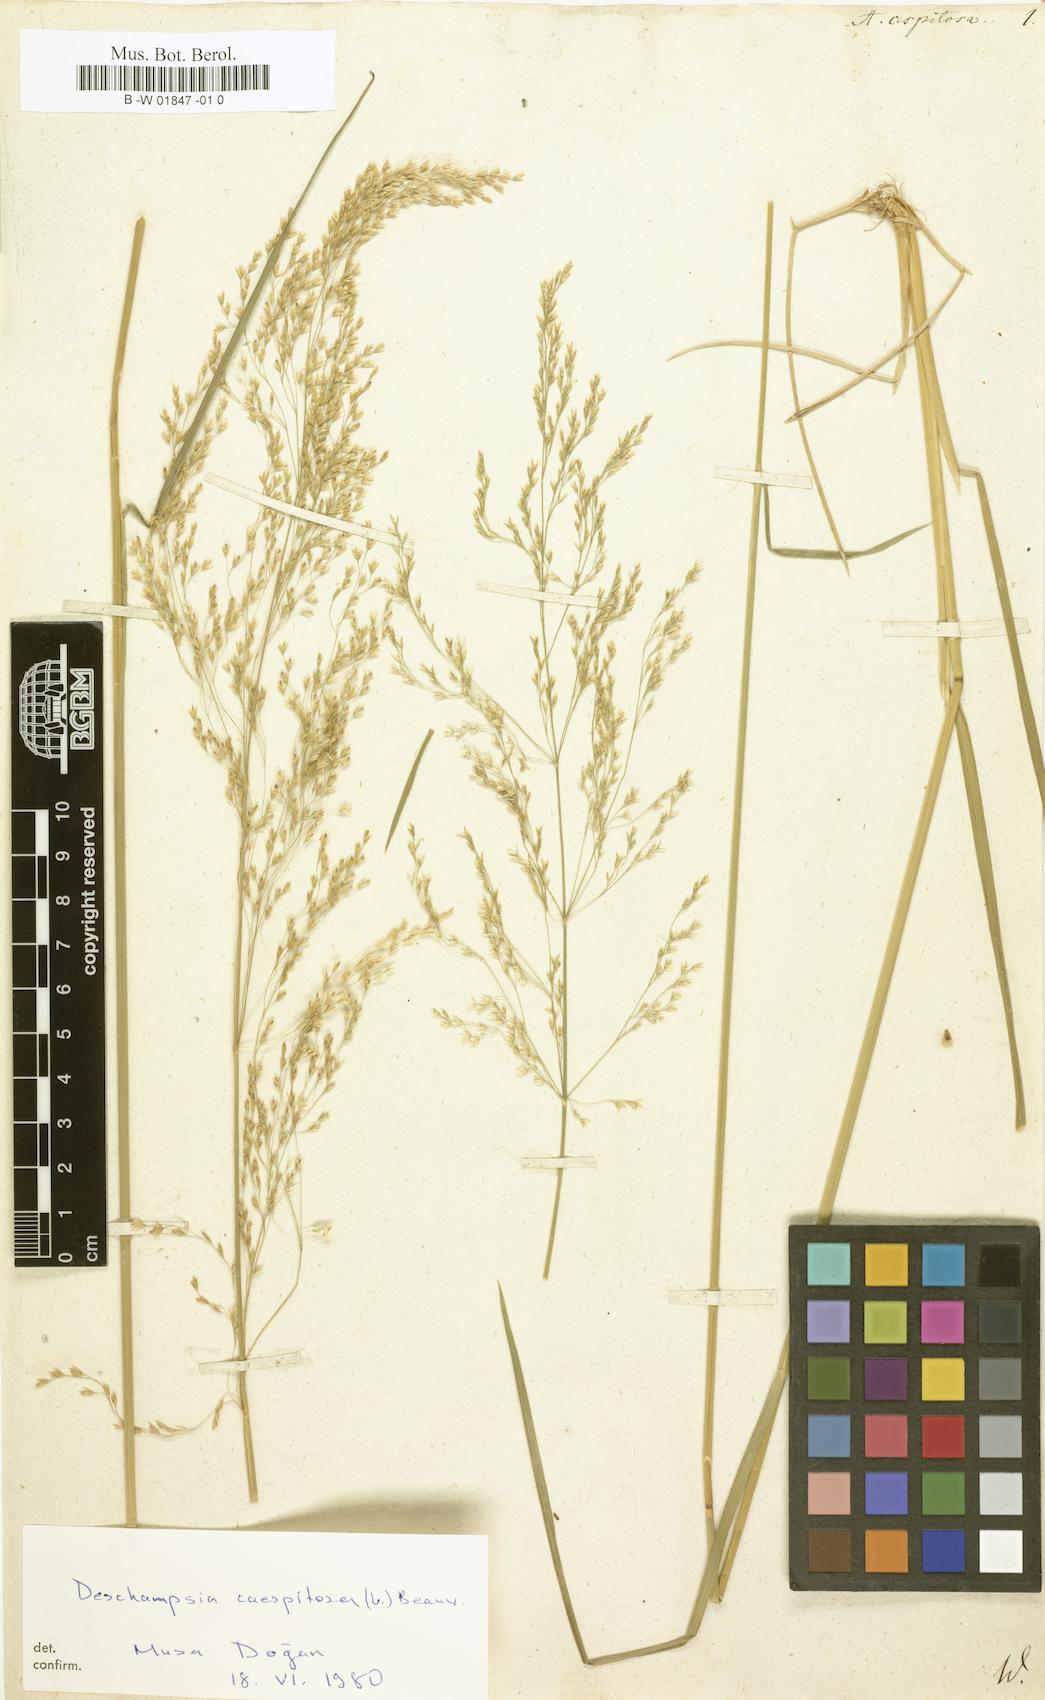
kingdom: Plantae
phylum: Tracheophyta
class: Liliopsida
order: Poales
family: Poaceae
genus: Deschampsia
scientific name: Deschampsia cespitosa
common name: Tufted hair-grass
